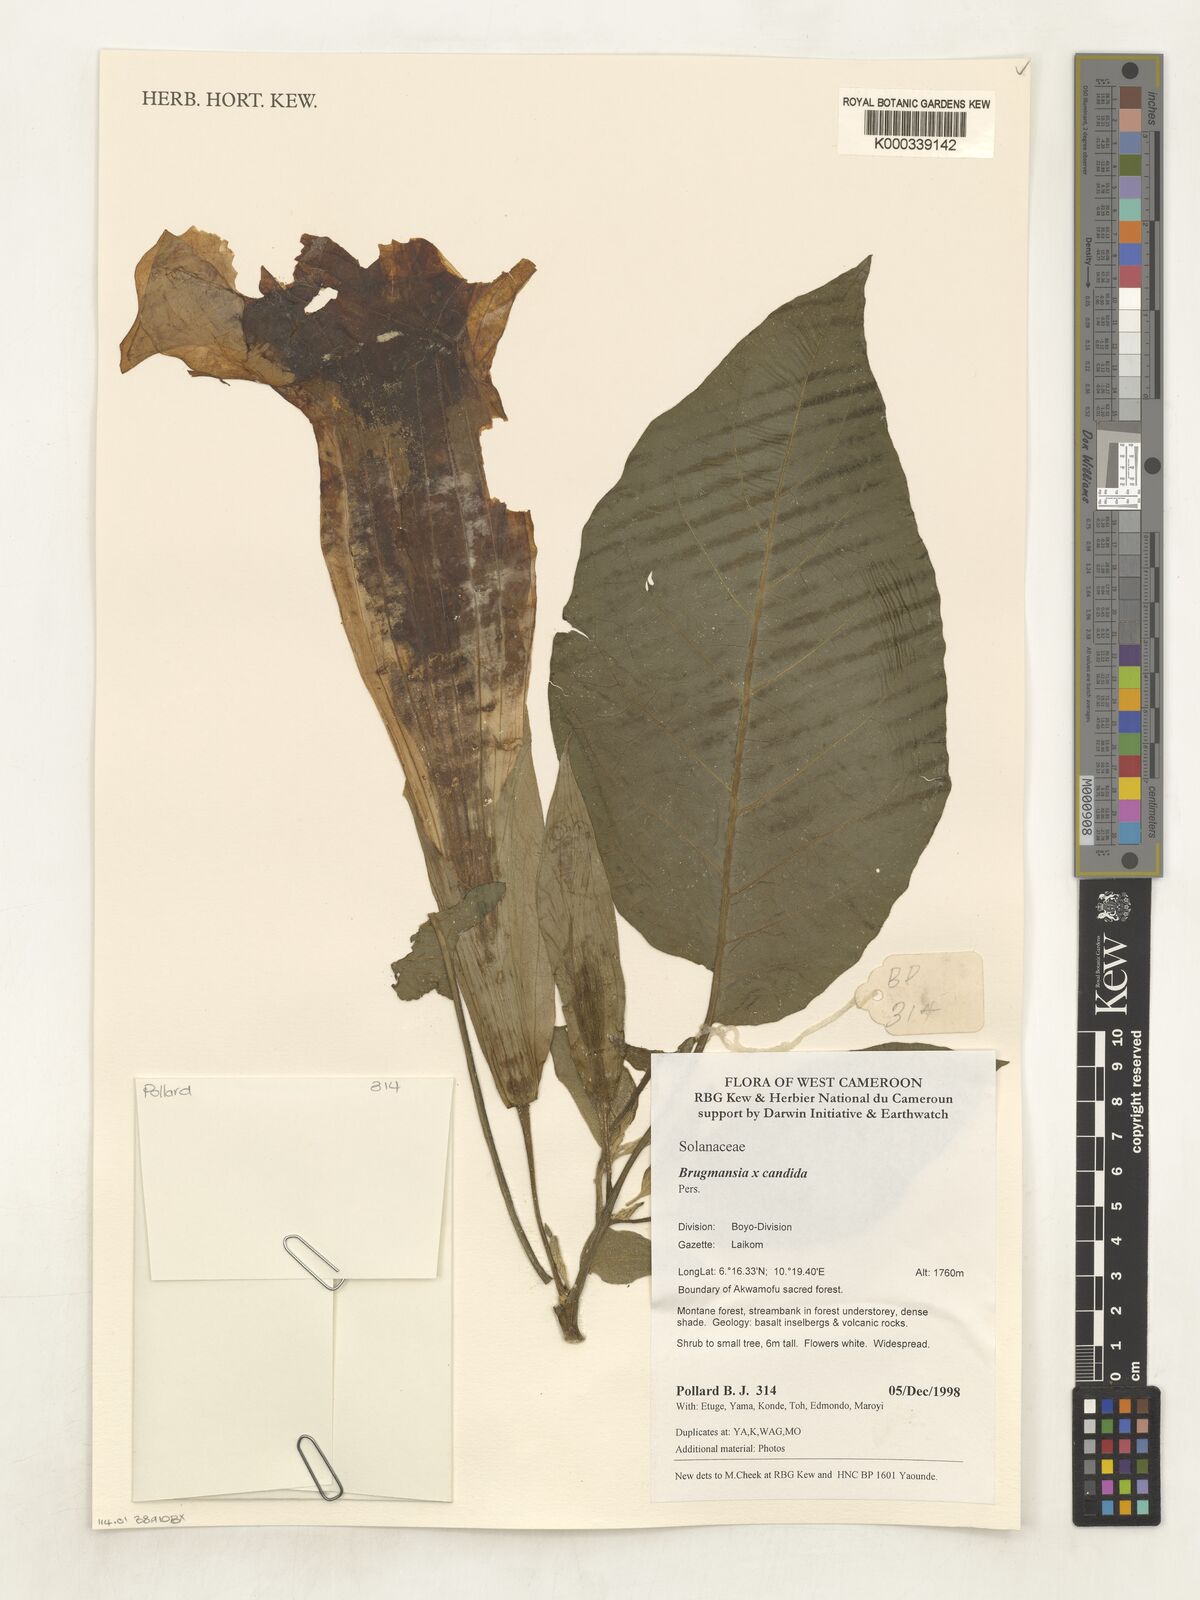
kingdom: Plantae
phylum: Tracheophyta
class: Magnoliopsida
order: Solanales
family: Solanaceae
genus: Brugmansia
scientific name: Brugmansia candida
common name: Angel's-trumpet
